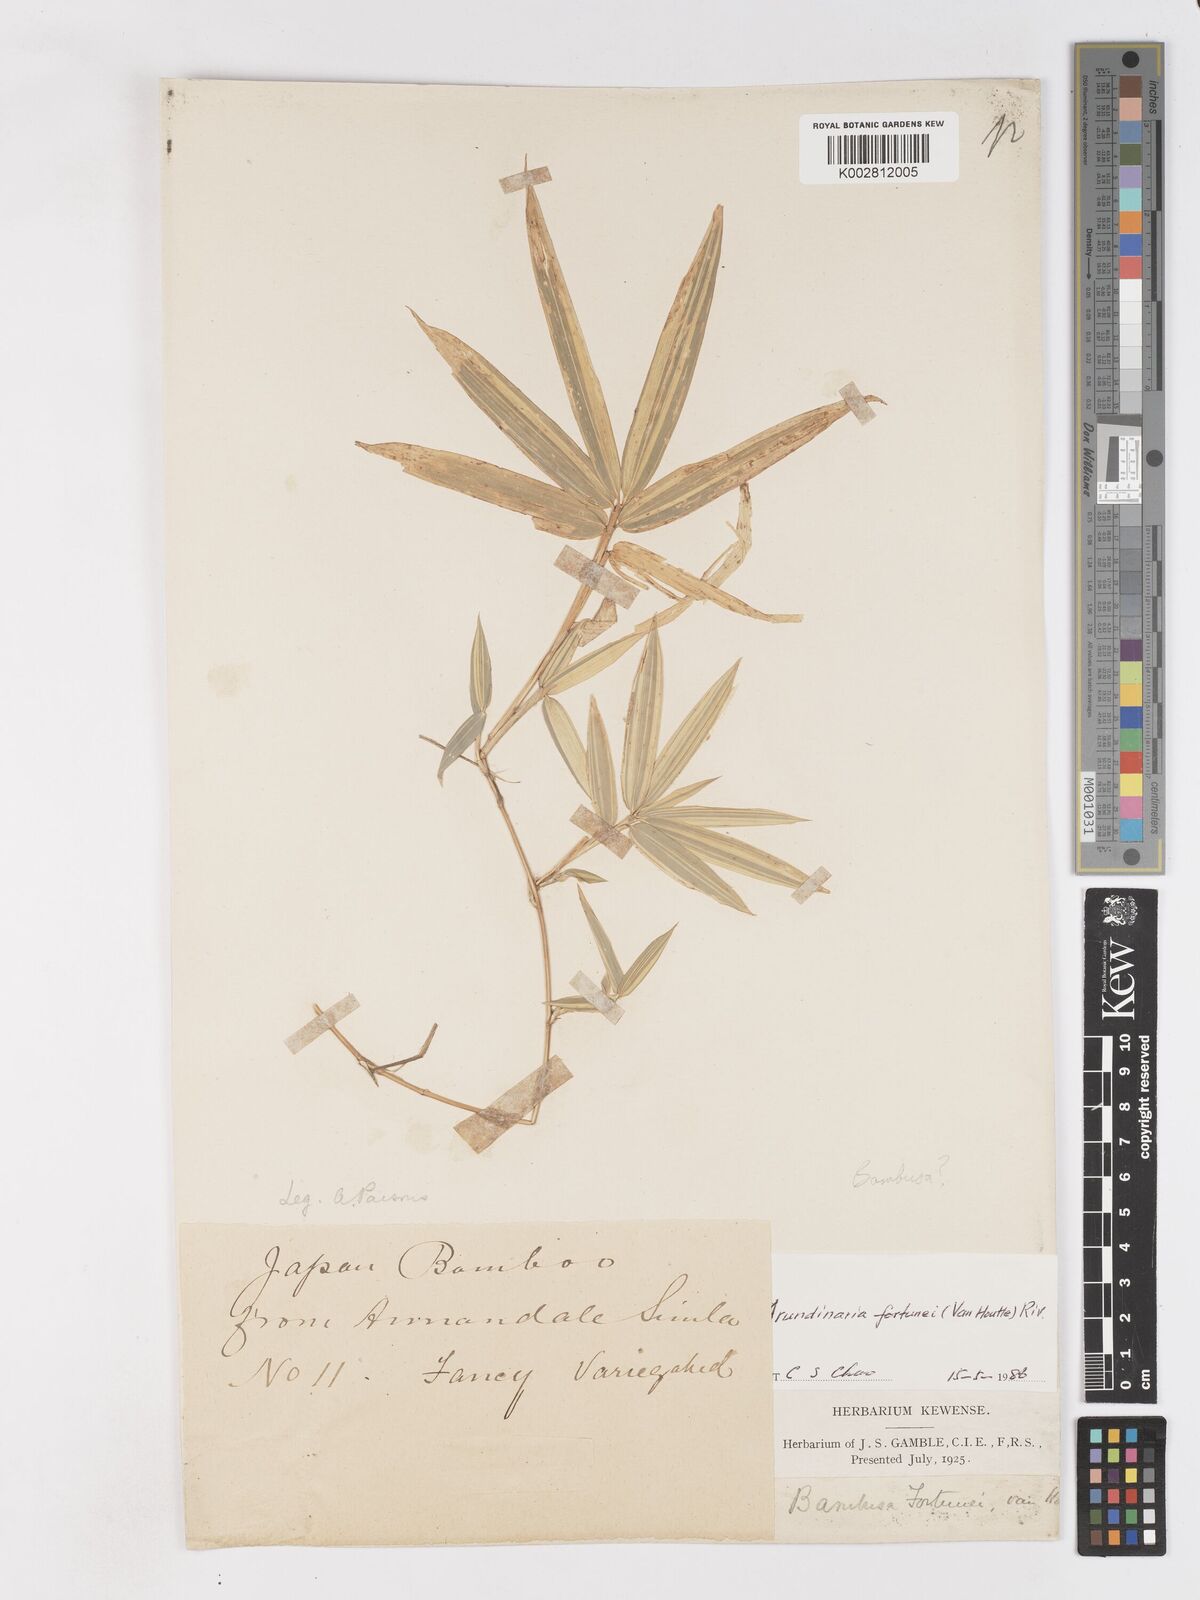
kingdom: Plantae
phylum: Tracheophyta
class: Liliopsida
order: Poales
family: Poaceae
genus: Pleioblastus
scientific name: Pleioblastus variegatus
